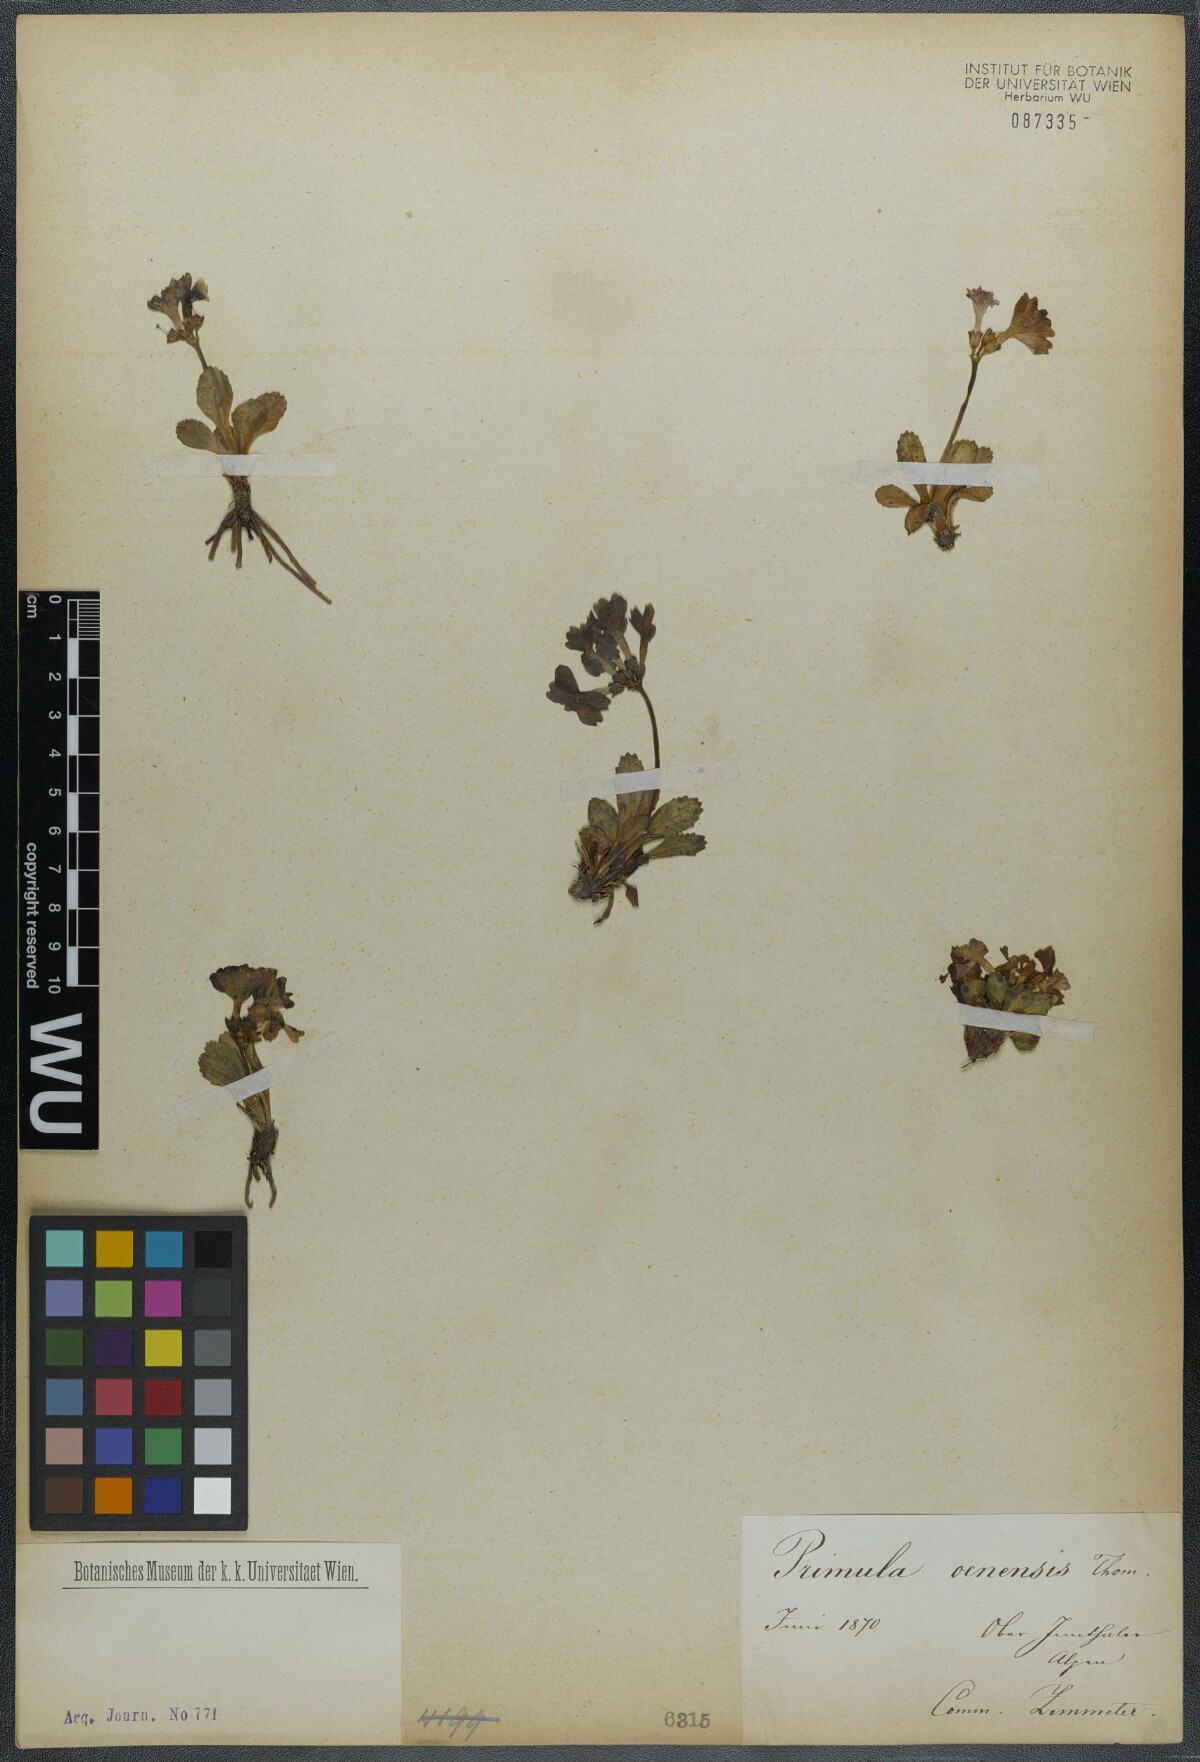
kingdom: Plantae
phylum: Tracheophyta
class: Magnoliopsida
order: Ericales
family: Primulaceae
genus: Primula
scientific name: Primula daonensis
